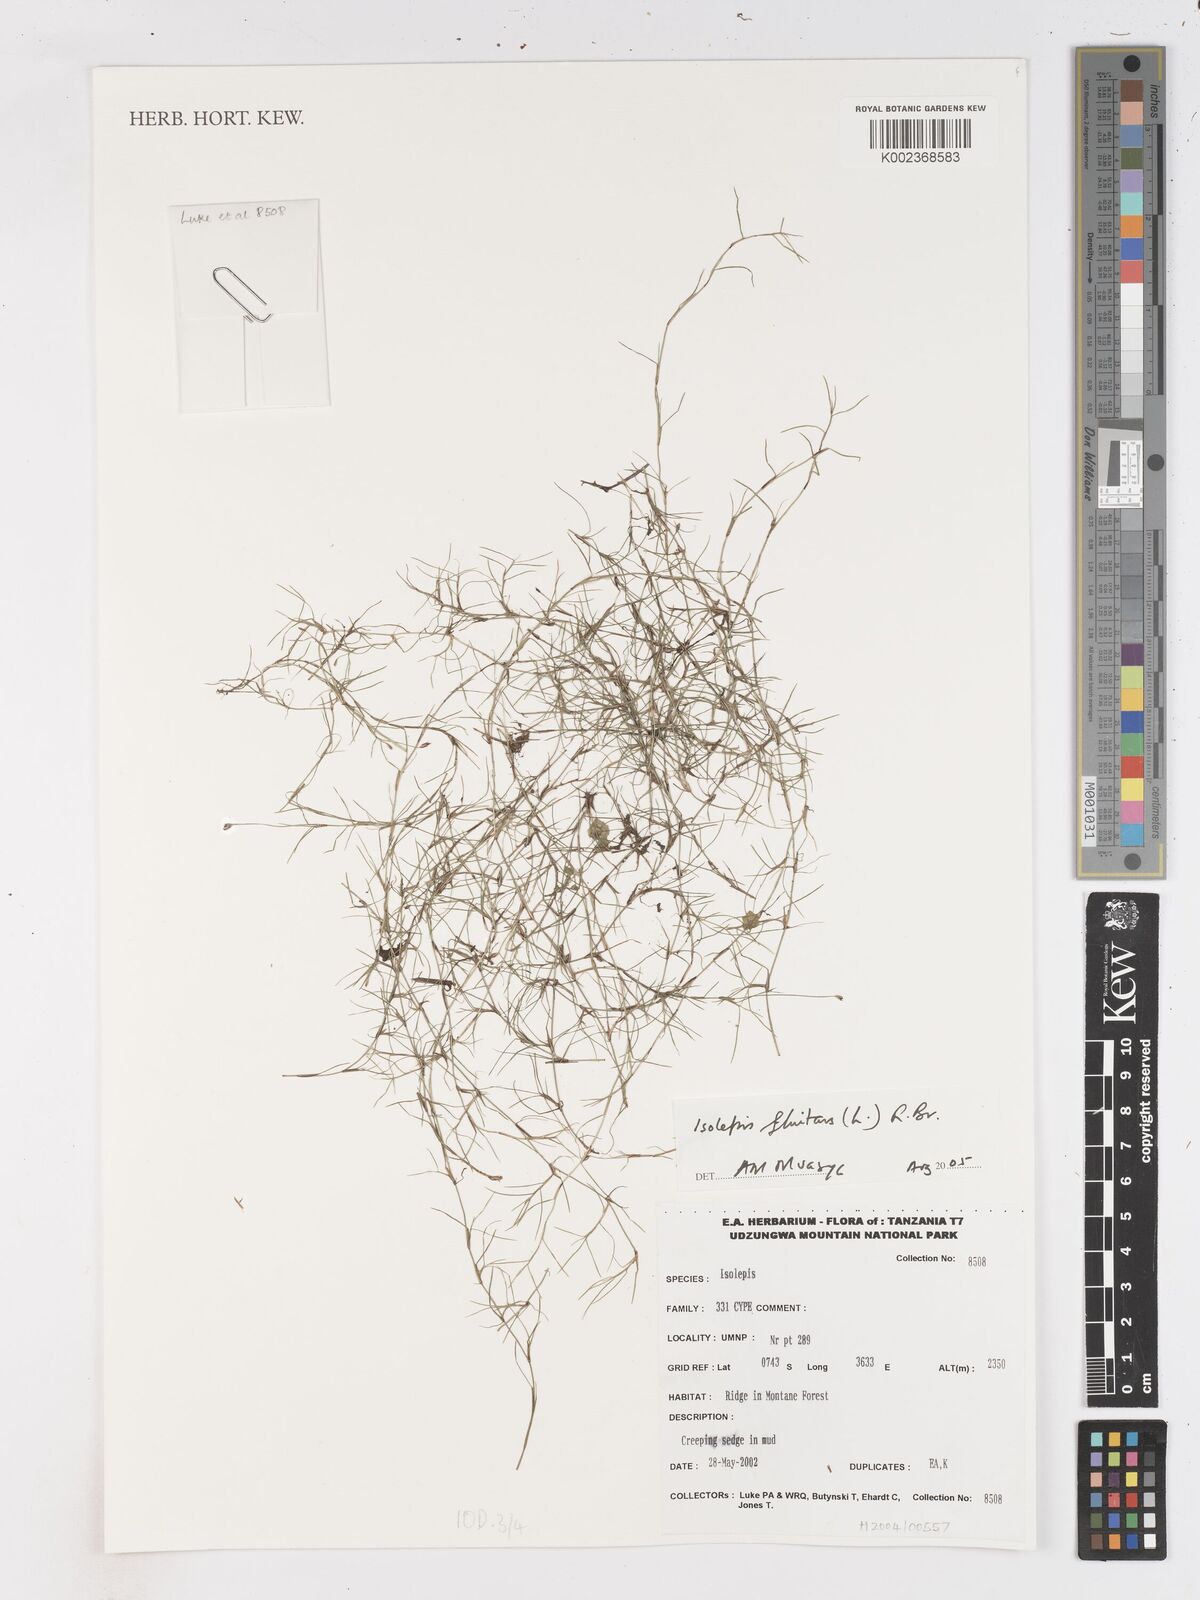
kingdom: Plantae
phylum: Tracheophyta
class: Liliopsida
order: Poales
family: Cyperaceae
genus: Isolepis
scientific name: Isolepis fluitans
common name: Floating club-rush
